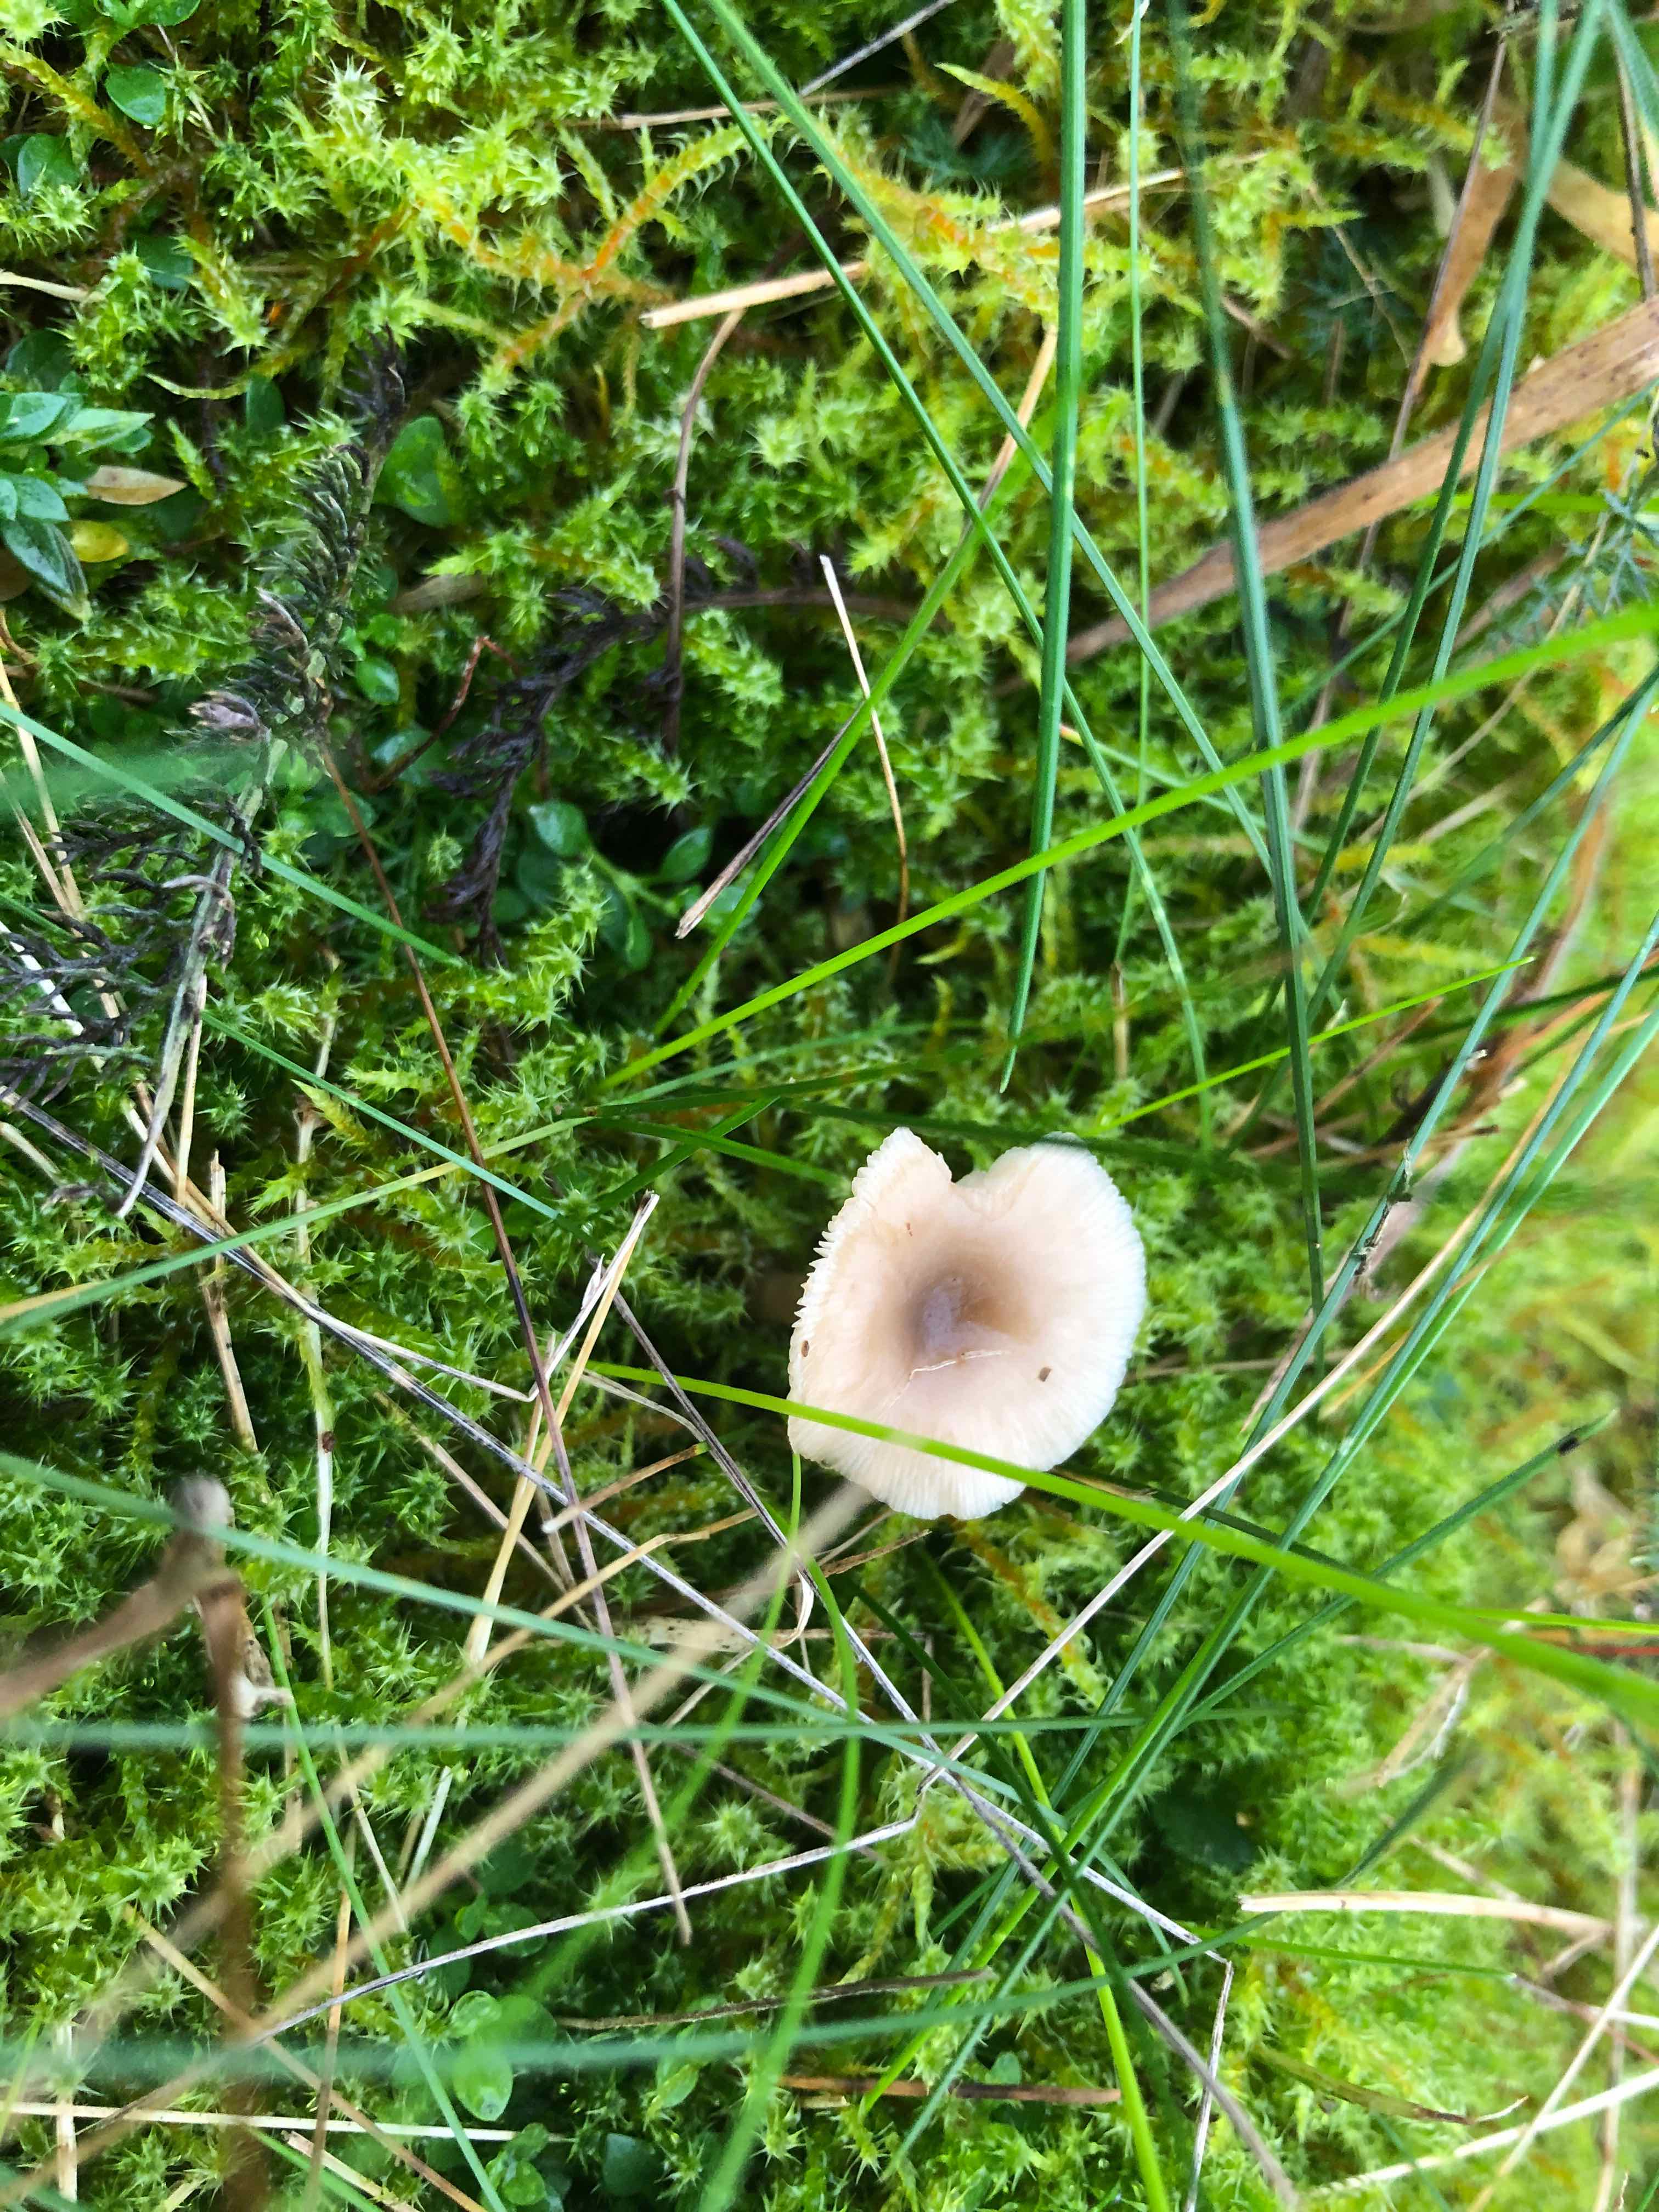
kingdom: Fungi
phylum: Basidiomycota
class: Agaricomycetes
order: Agaricales
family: Tricholomataceae
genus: Clitocybe
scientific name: Clitocybe fragrans
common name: vellugtende tragthat
